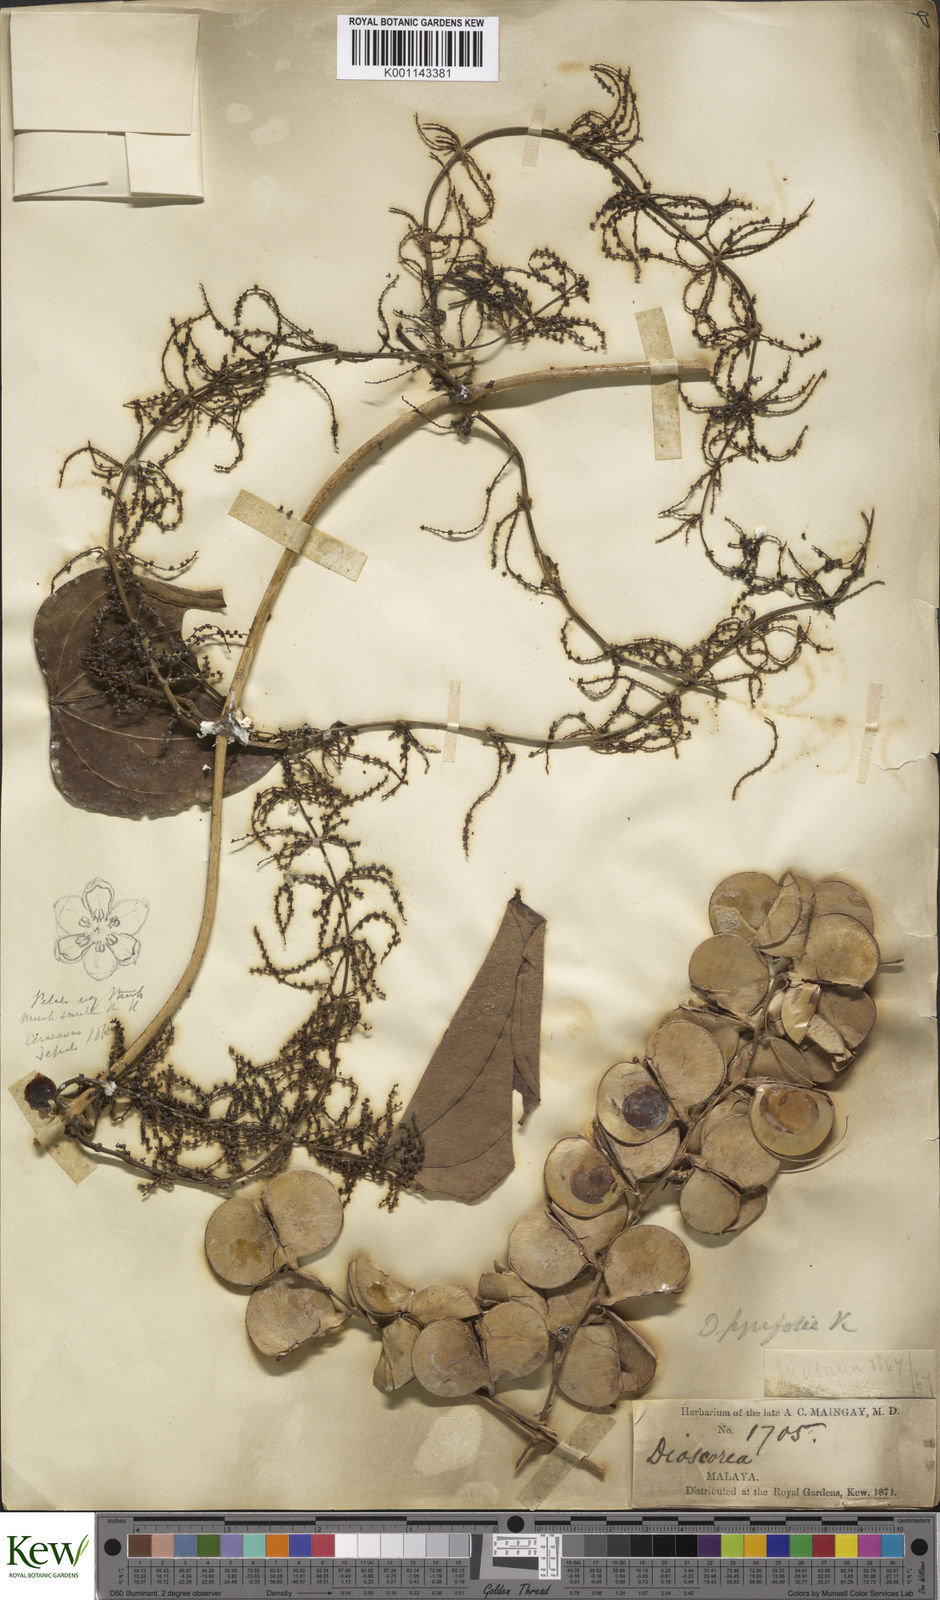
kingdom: Plantae
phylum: Tracheophyta
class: Liliopsida
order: Dioscoreales
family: Dioscoreaceae
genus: Dioscorea
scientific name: Dioscorea pyrifolia
